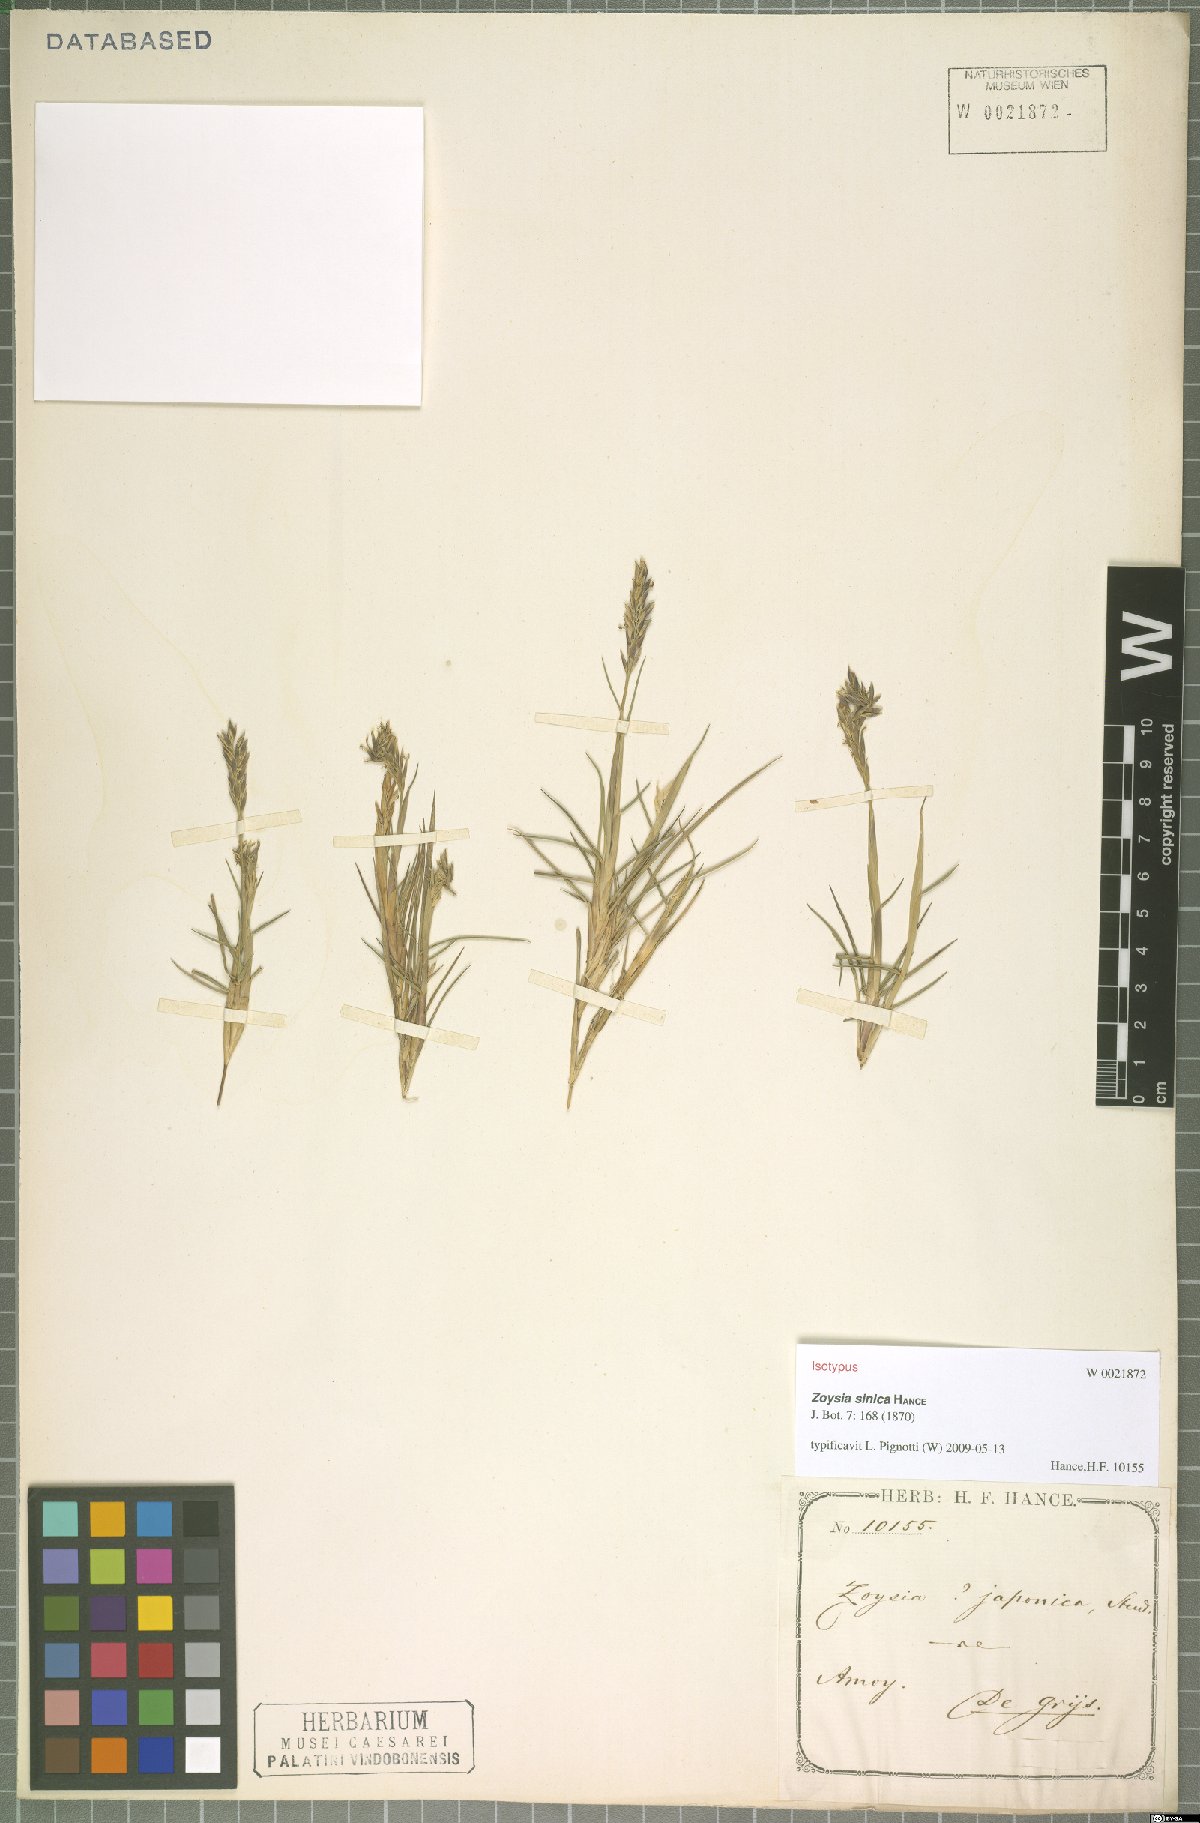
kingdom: Plantae
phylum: Tracheophyta
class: Liliopsida
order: Poales
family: Poaceae
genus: Zoysia
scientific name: Zoysia sinica
